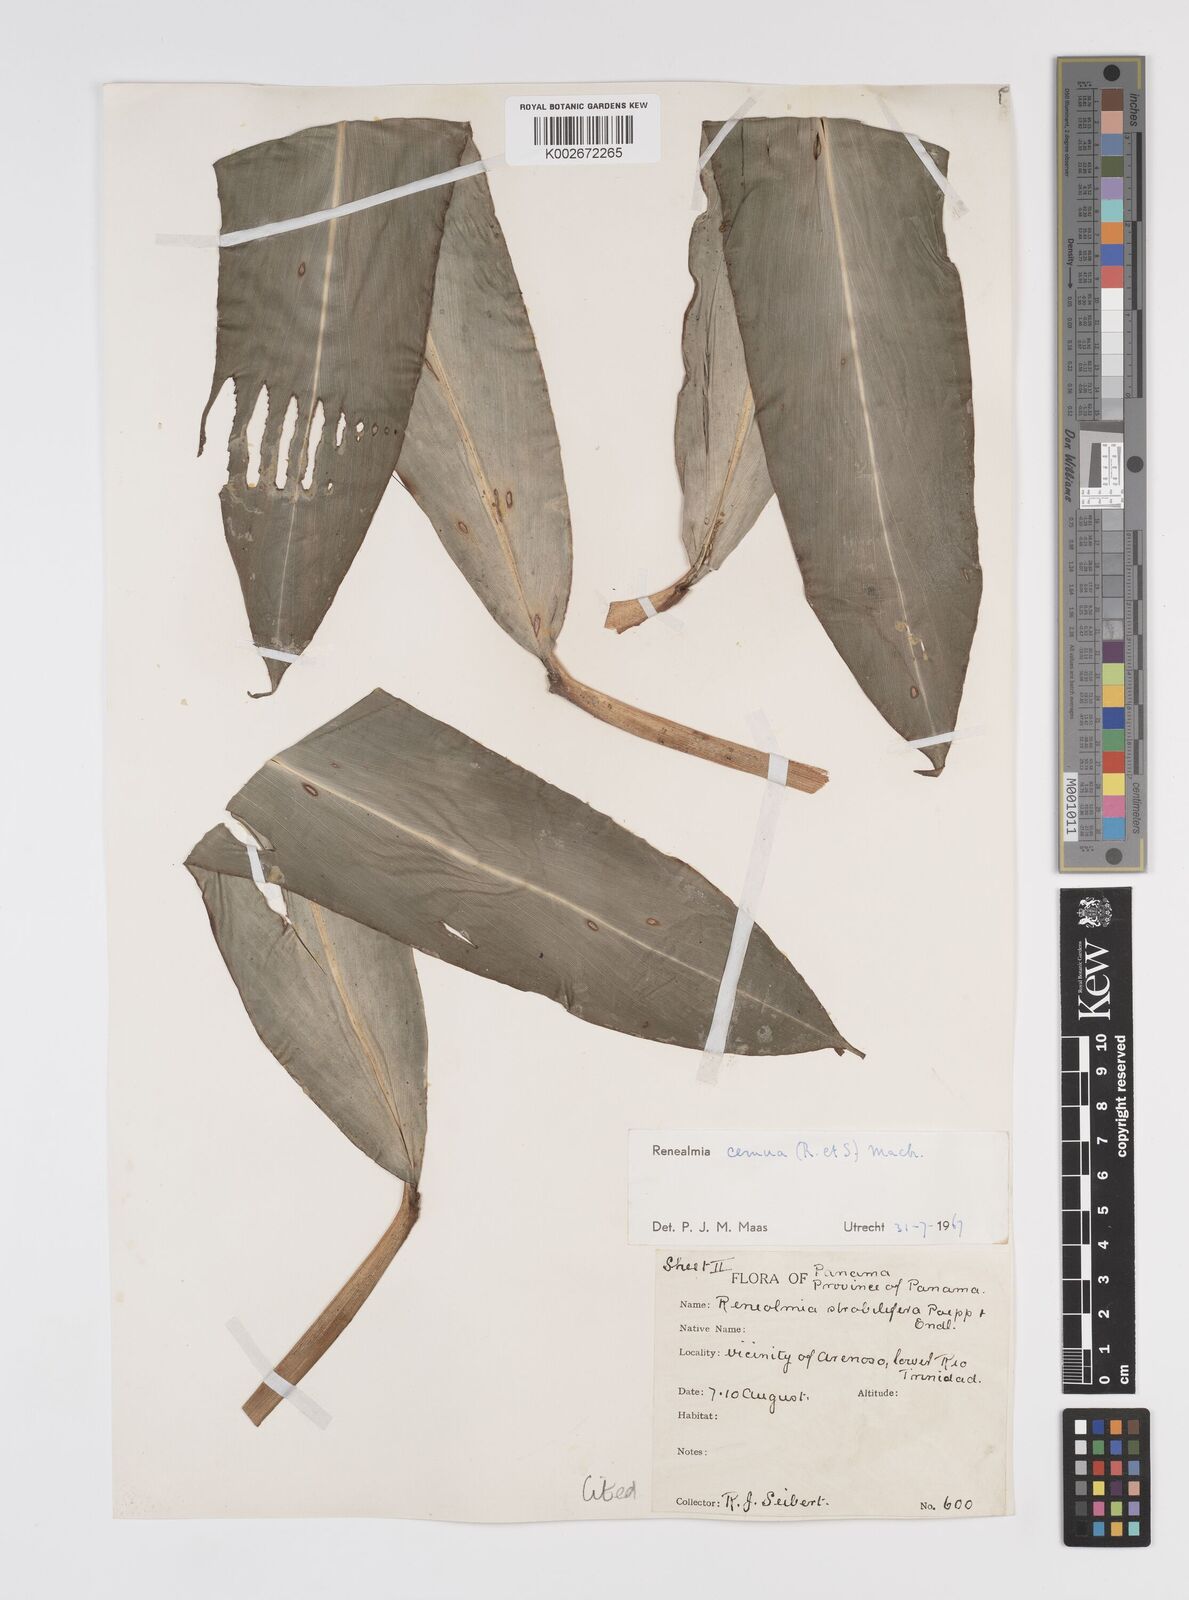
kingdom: Plantae
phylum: Tracheophyta
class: Liliopsida
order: Zingiberales
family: Zingiberaceae
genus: Renealmia
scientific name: Renealmia cernua
